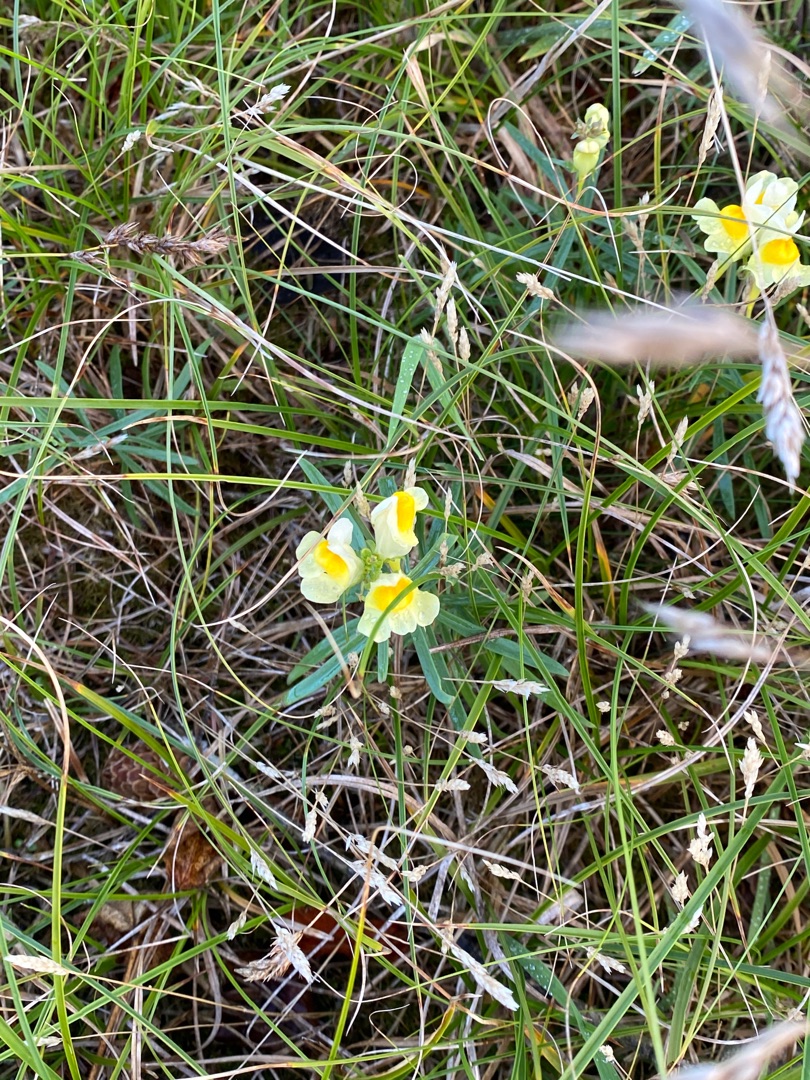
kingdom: Plantae
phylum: Tracheophyta
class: Magnoliopsida
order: Lamiales
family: Plantaginaceae
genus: Linaria
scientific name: Linaria vulgaris
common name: Almindelig torskemund
